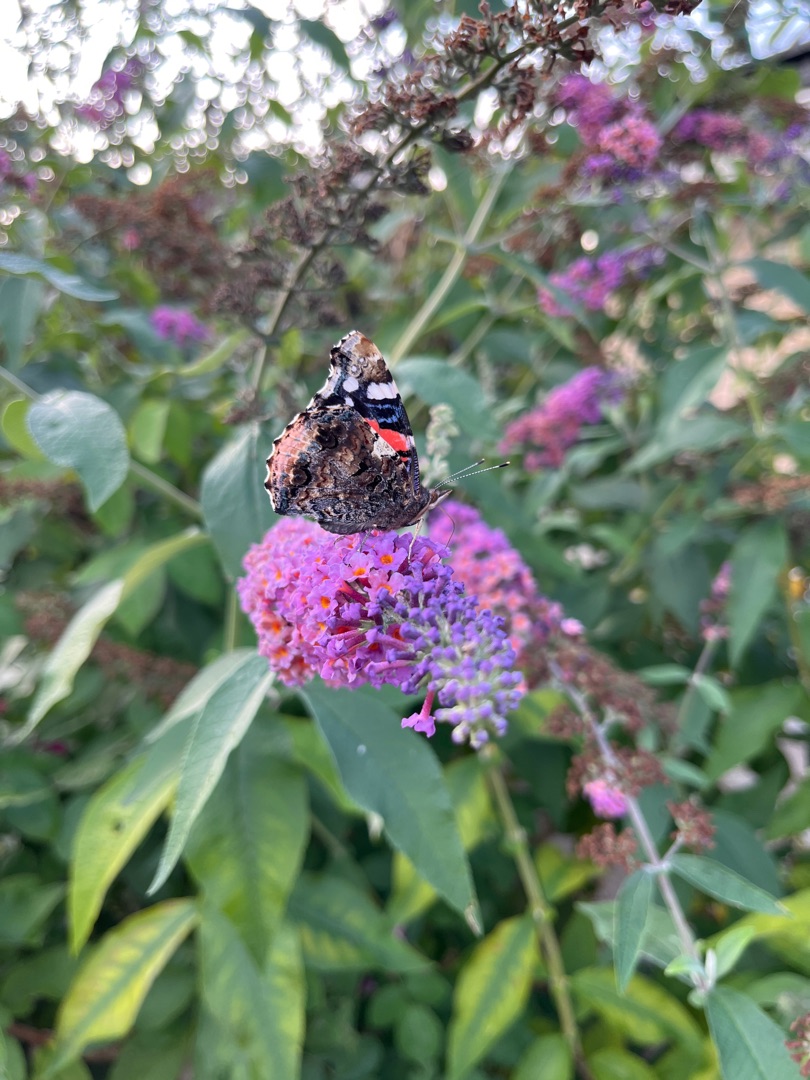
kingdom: Animalia
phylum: Arthropoda
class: Insecta
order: Lepidoptera
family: Nymphalidae
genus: Vanessa
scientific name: Vanessa atalanta
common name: Admiral
